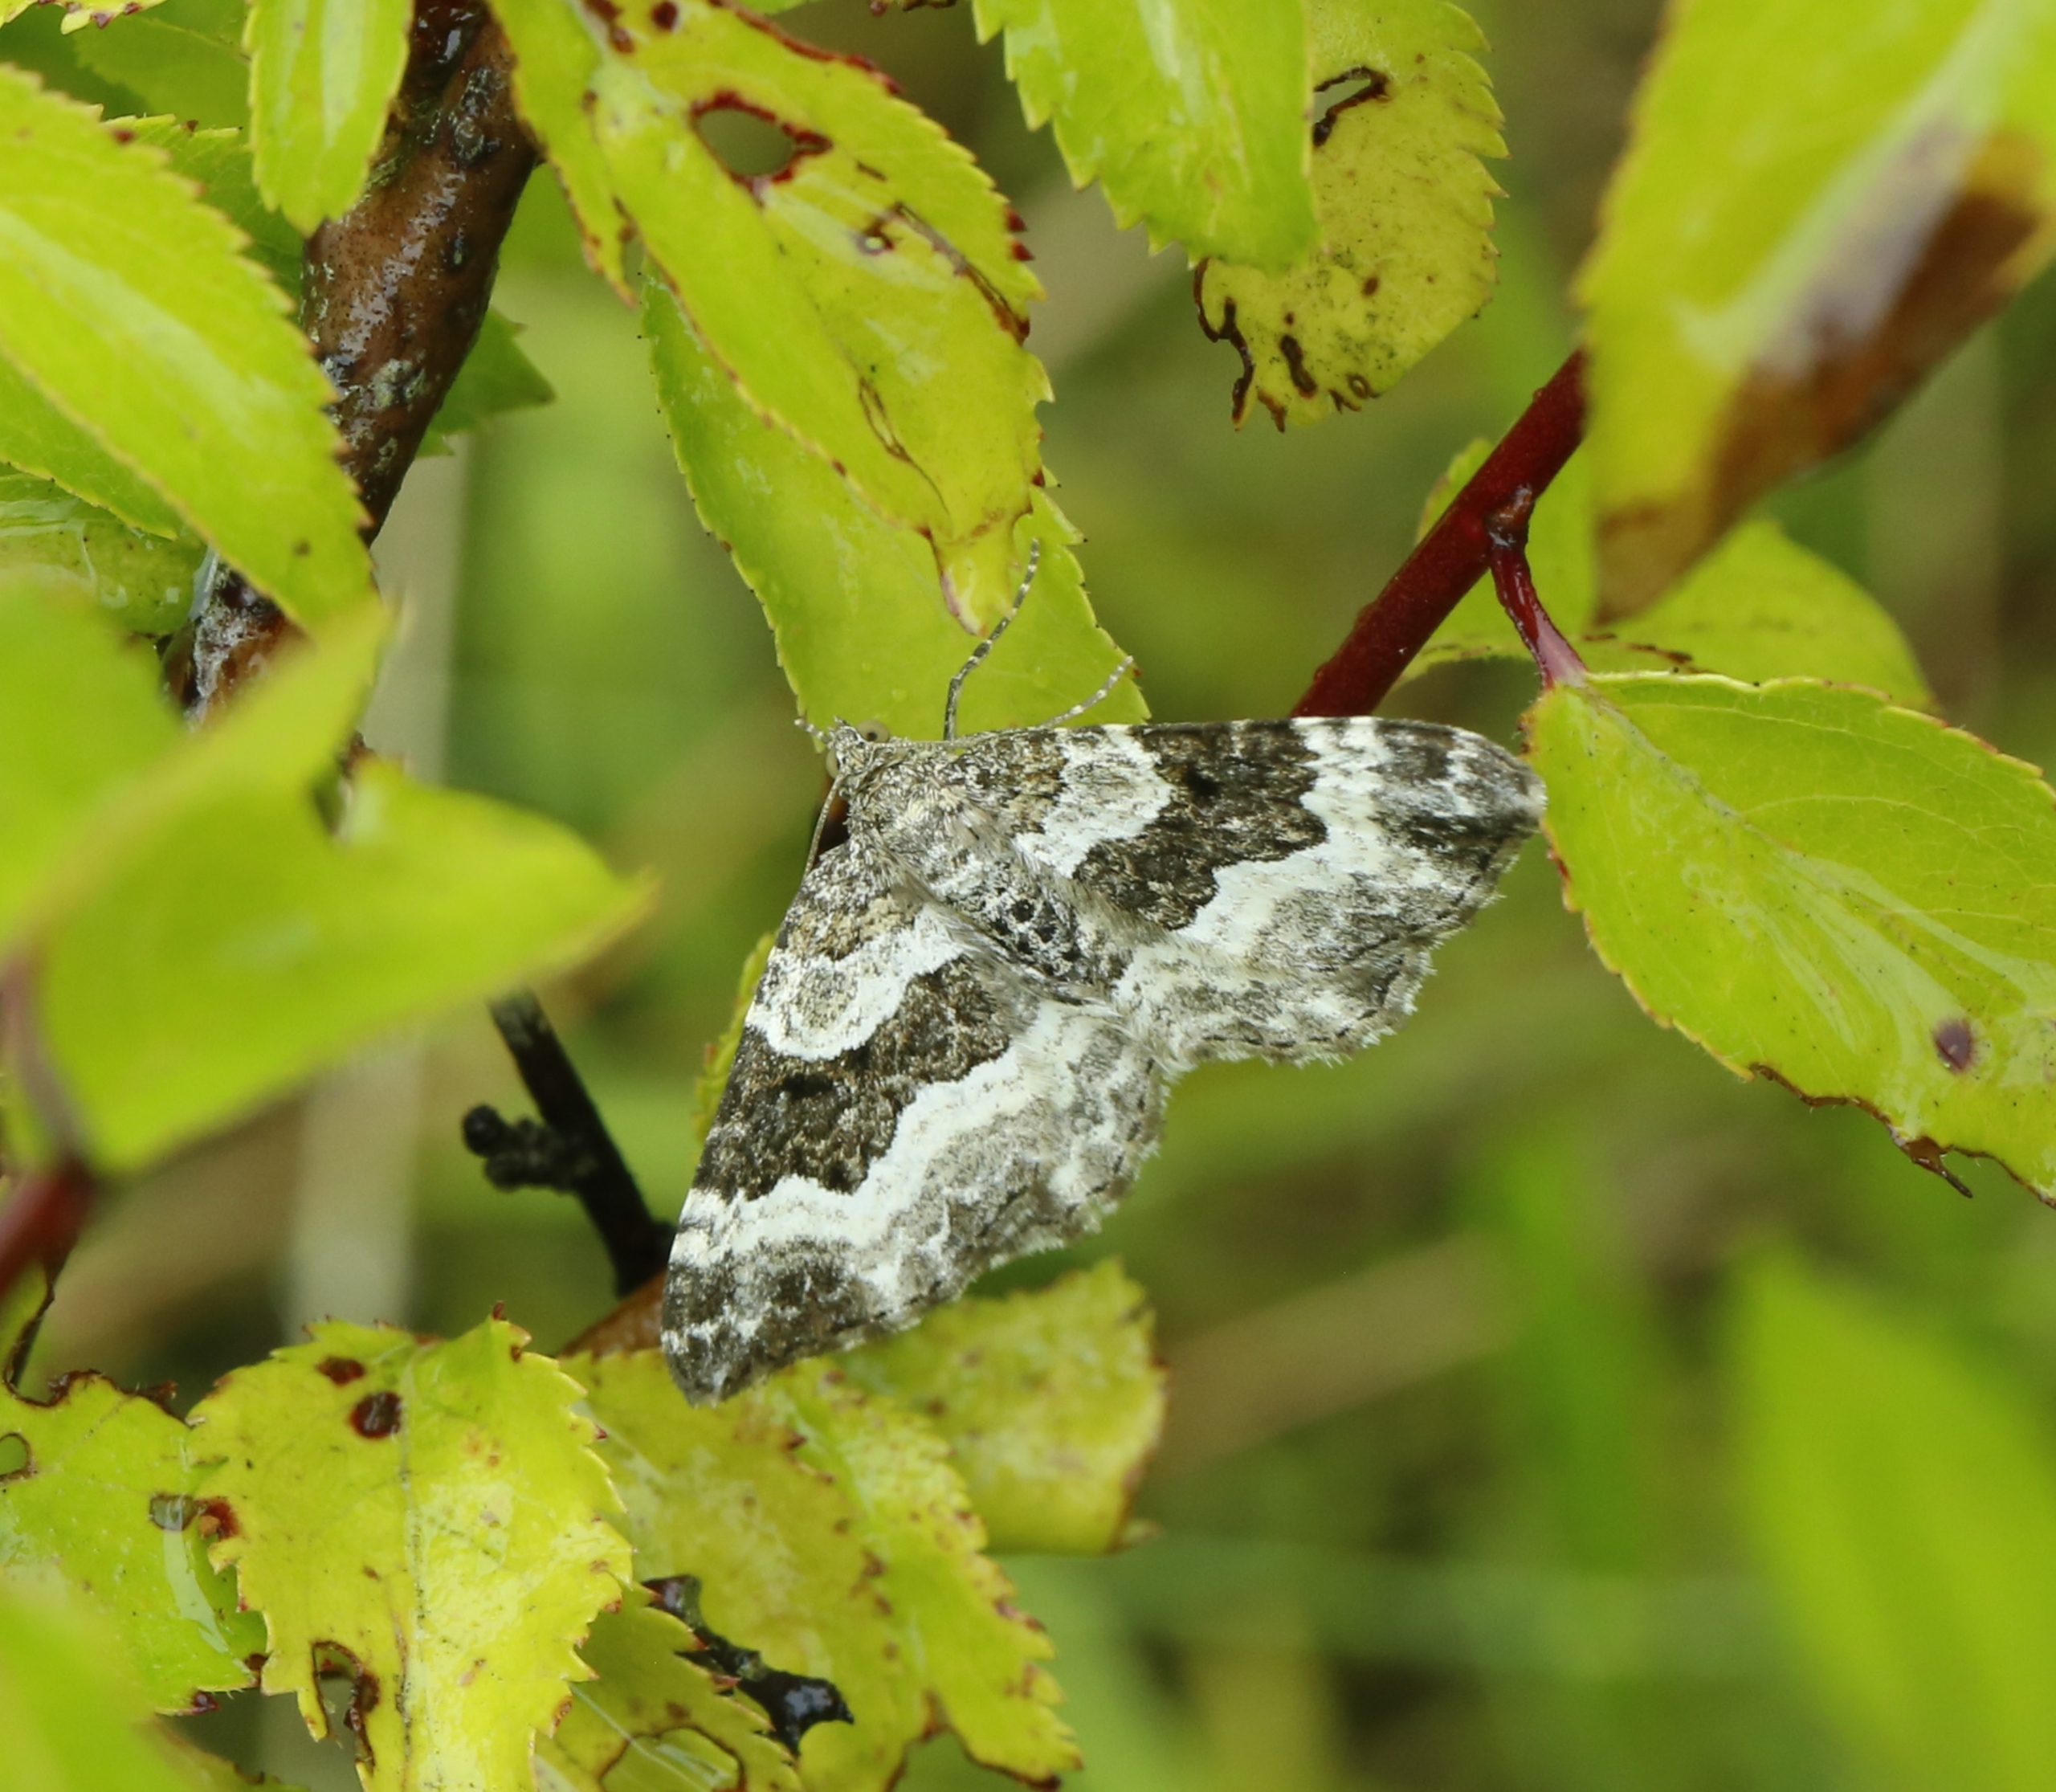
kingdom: Animalia
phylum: Arthropoda
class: Insecta
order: Lepidoptera
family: Geometridae
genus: Epirrhoe
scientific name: Epirrhoe alternata
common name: Almindelig bladmåler
